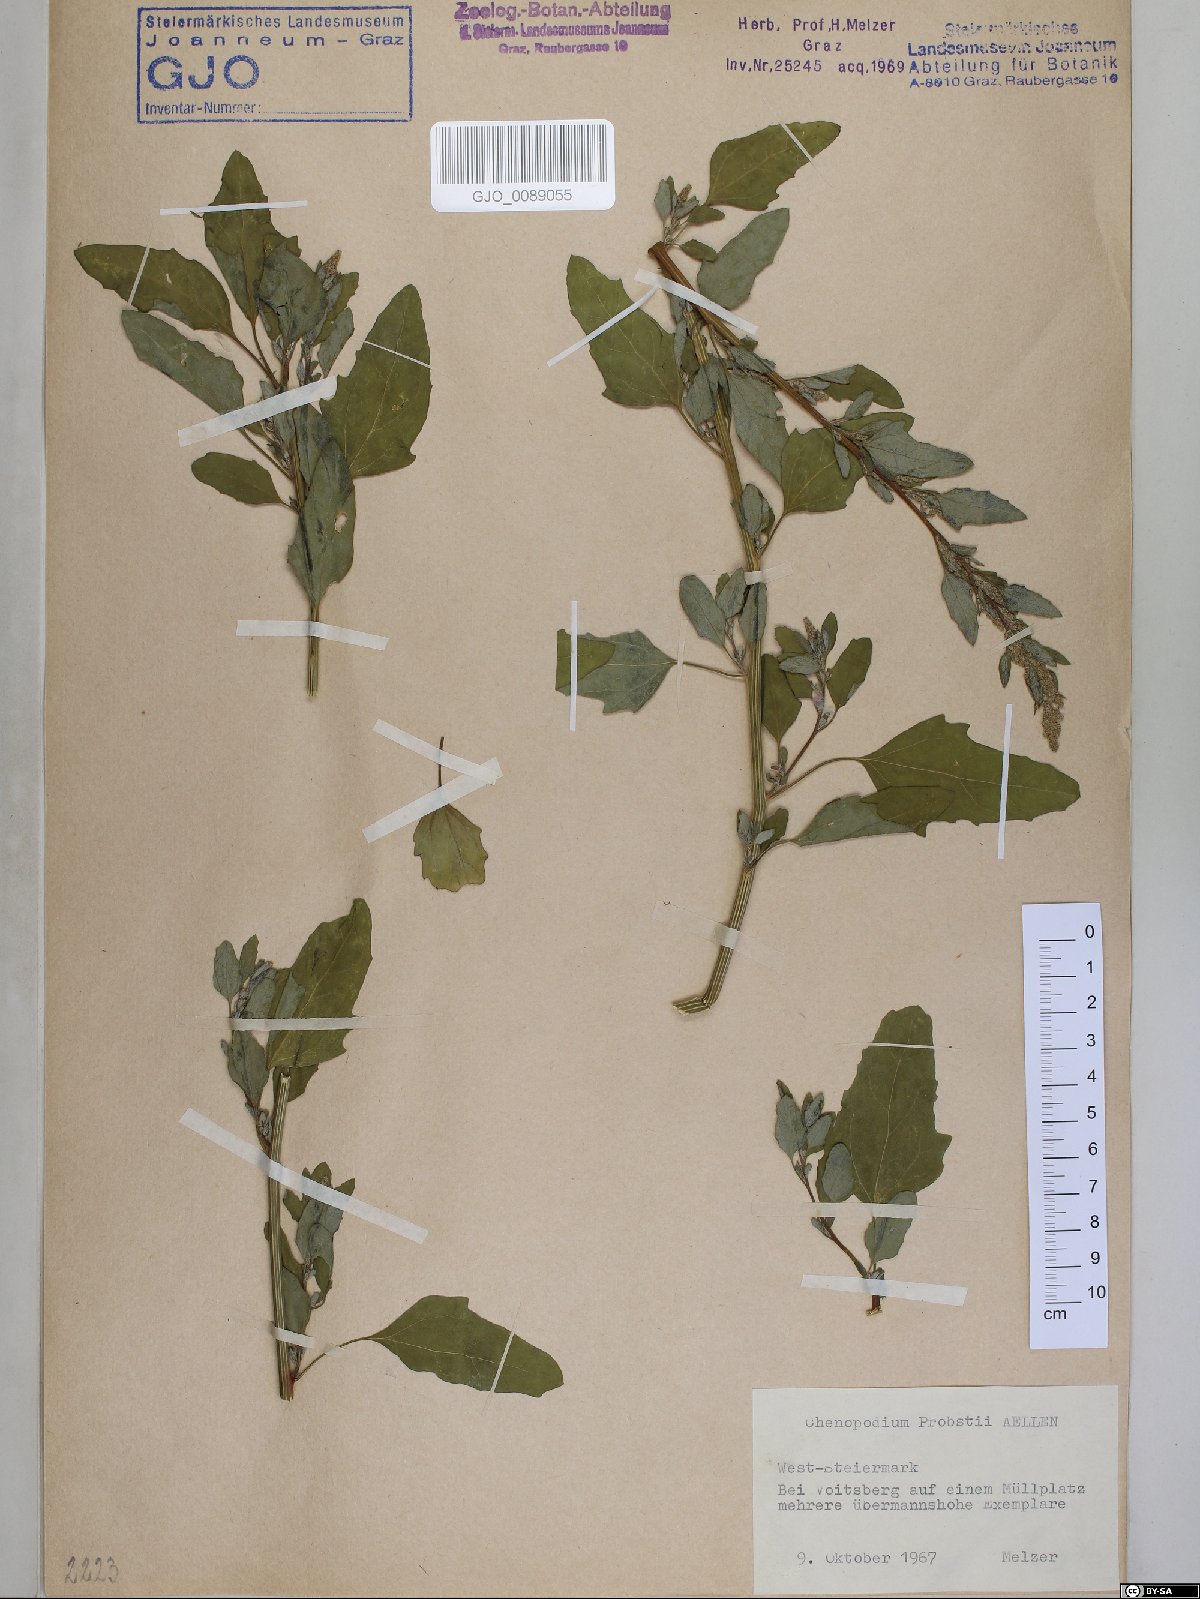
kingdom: Plantae
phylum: Tracheophyta
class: Magnoliopsida
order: Caryophyllales
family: Amaranthaceae
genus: Chenopodium
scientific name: Chenopodium probstii
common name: Probst's goosefoot
